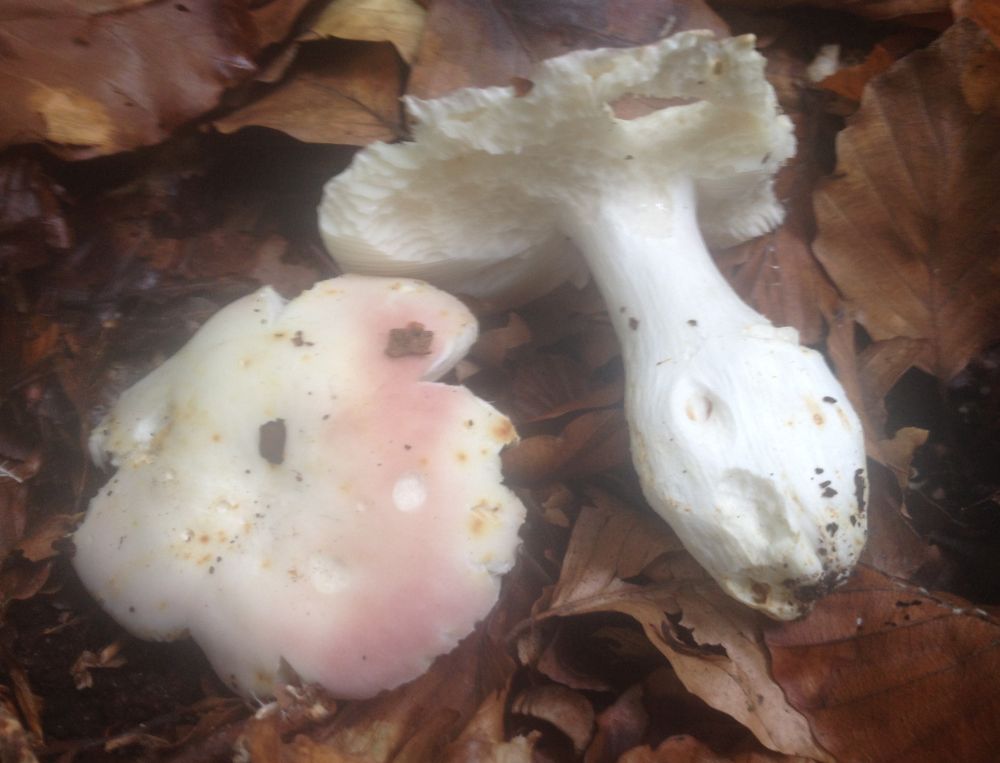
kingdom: Fungi
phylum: Basidiomycota
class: Agaricomycetes
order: Russulales
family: Russulaceae
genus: Russula
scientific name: Russula
